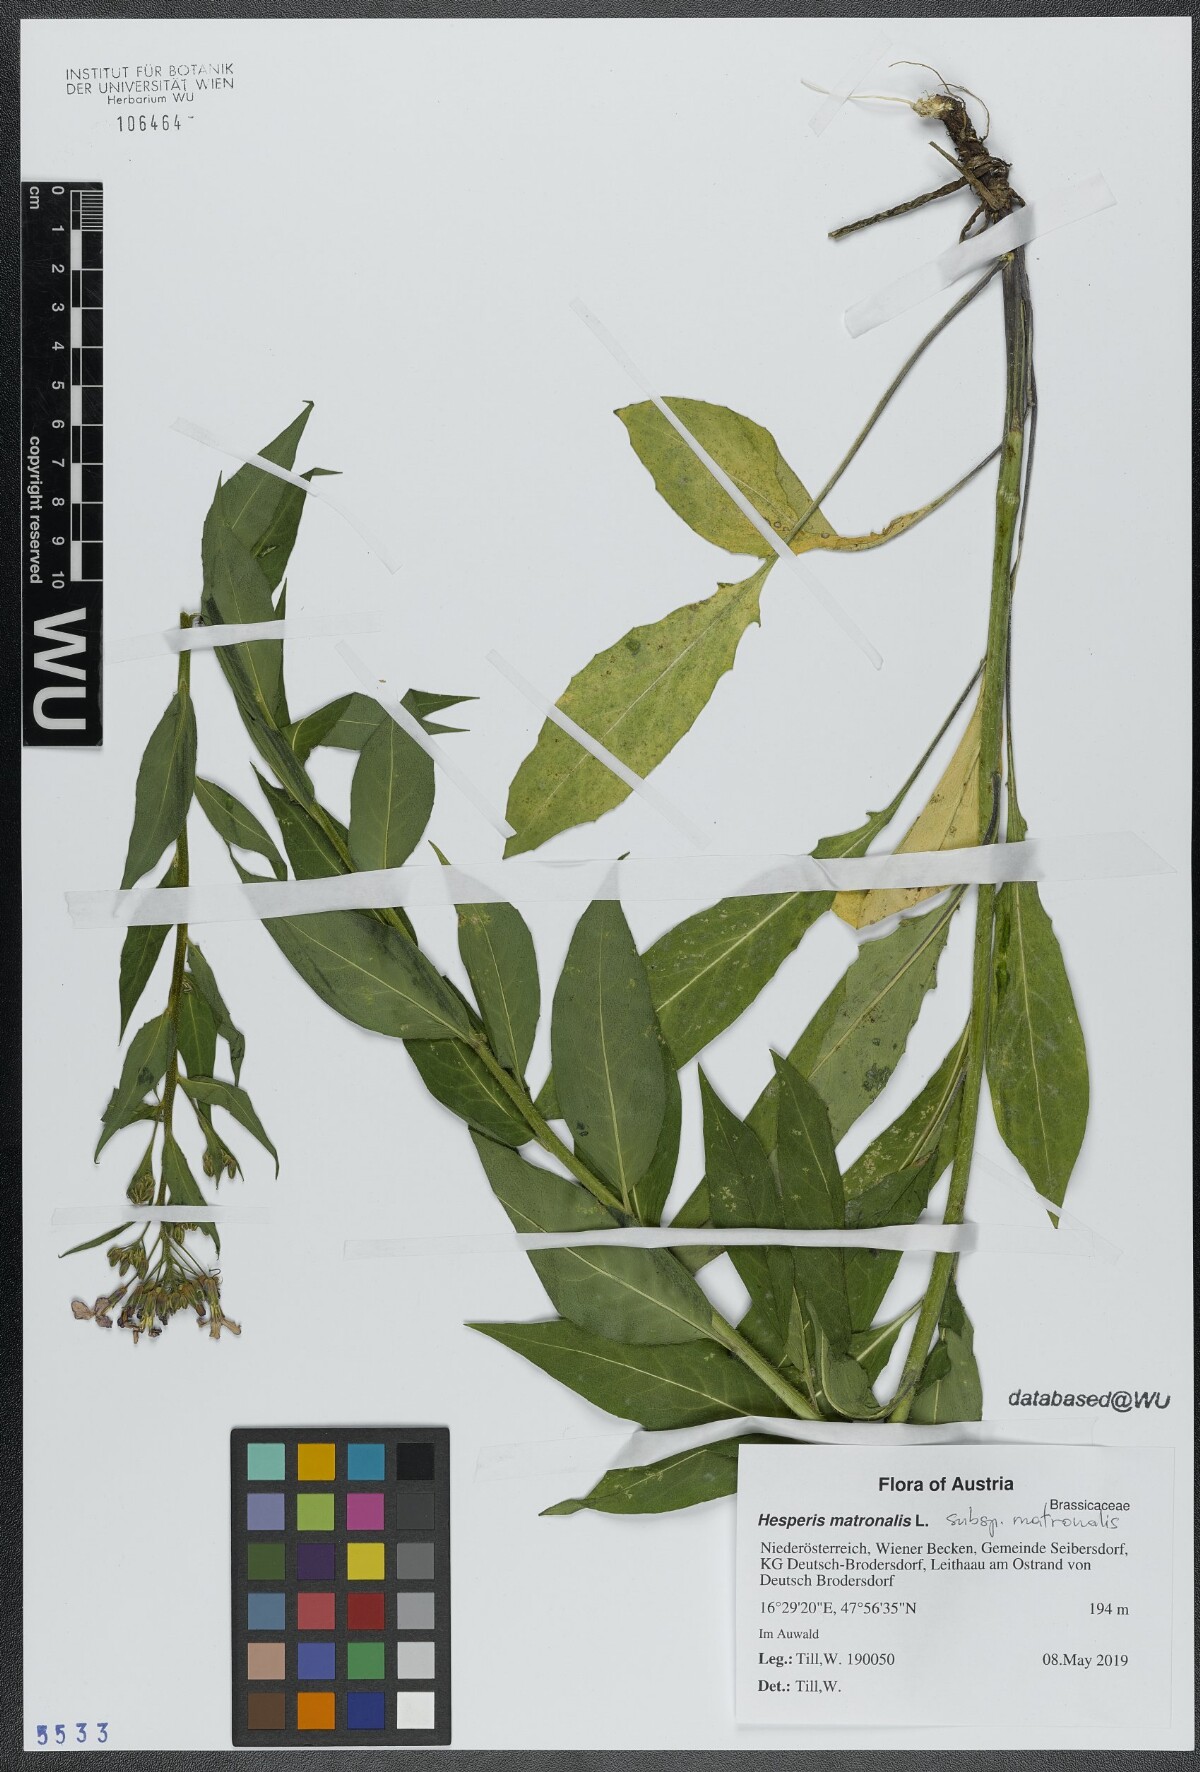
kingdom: Plantae
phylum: Tracheophyta
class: Magnoliopsida
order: Brassicales
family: Brassicaceae
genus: Hesperis
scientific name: Hesperis matronalis
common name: Dame's-violet
